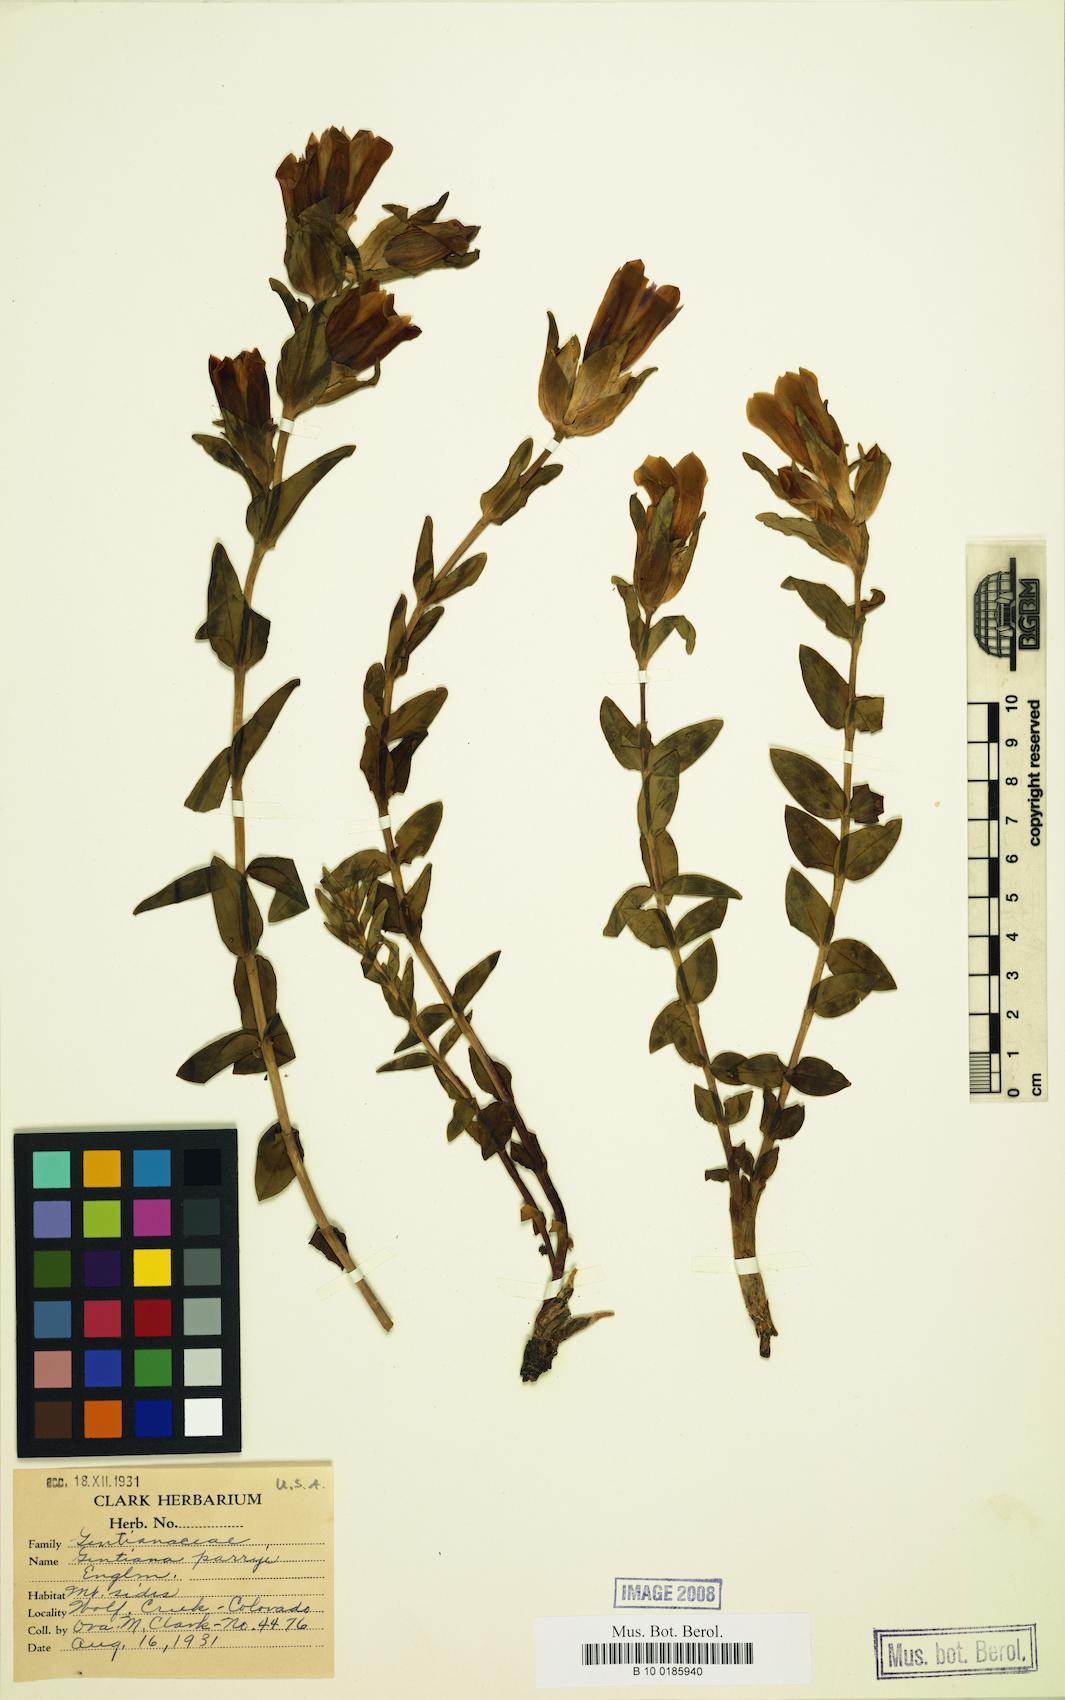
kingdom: Plantae
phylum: Tracheophyta
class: Magnoliopsida
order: Gentianales
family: Gentianaceae
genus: Gentiana
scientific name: Gentiana parryi
